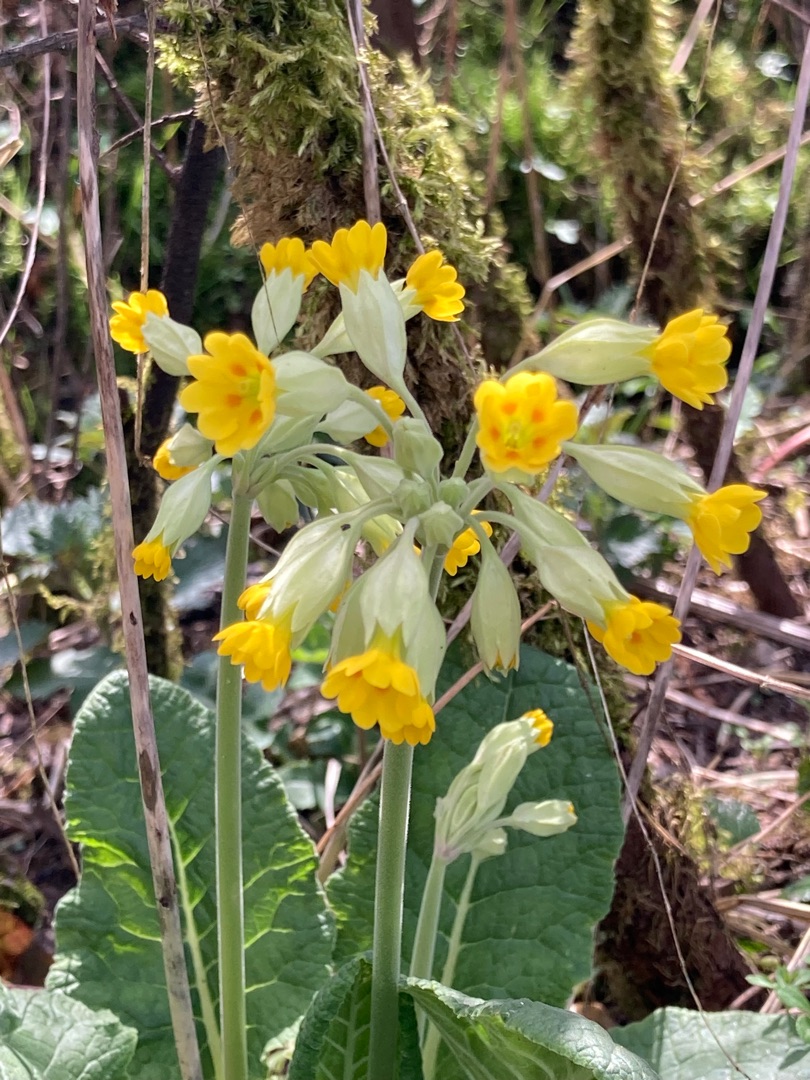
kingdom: Plantae
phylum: Tracheophyta
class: Magnoliopsida
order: Ericales
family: Primulaceae
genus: Primula
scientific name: Primula veris
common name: Hulkravet kodriver
